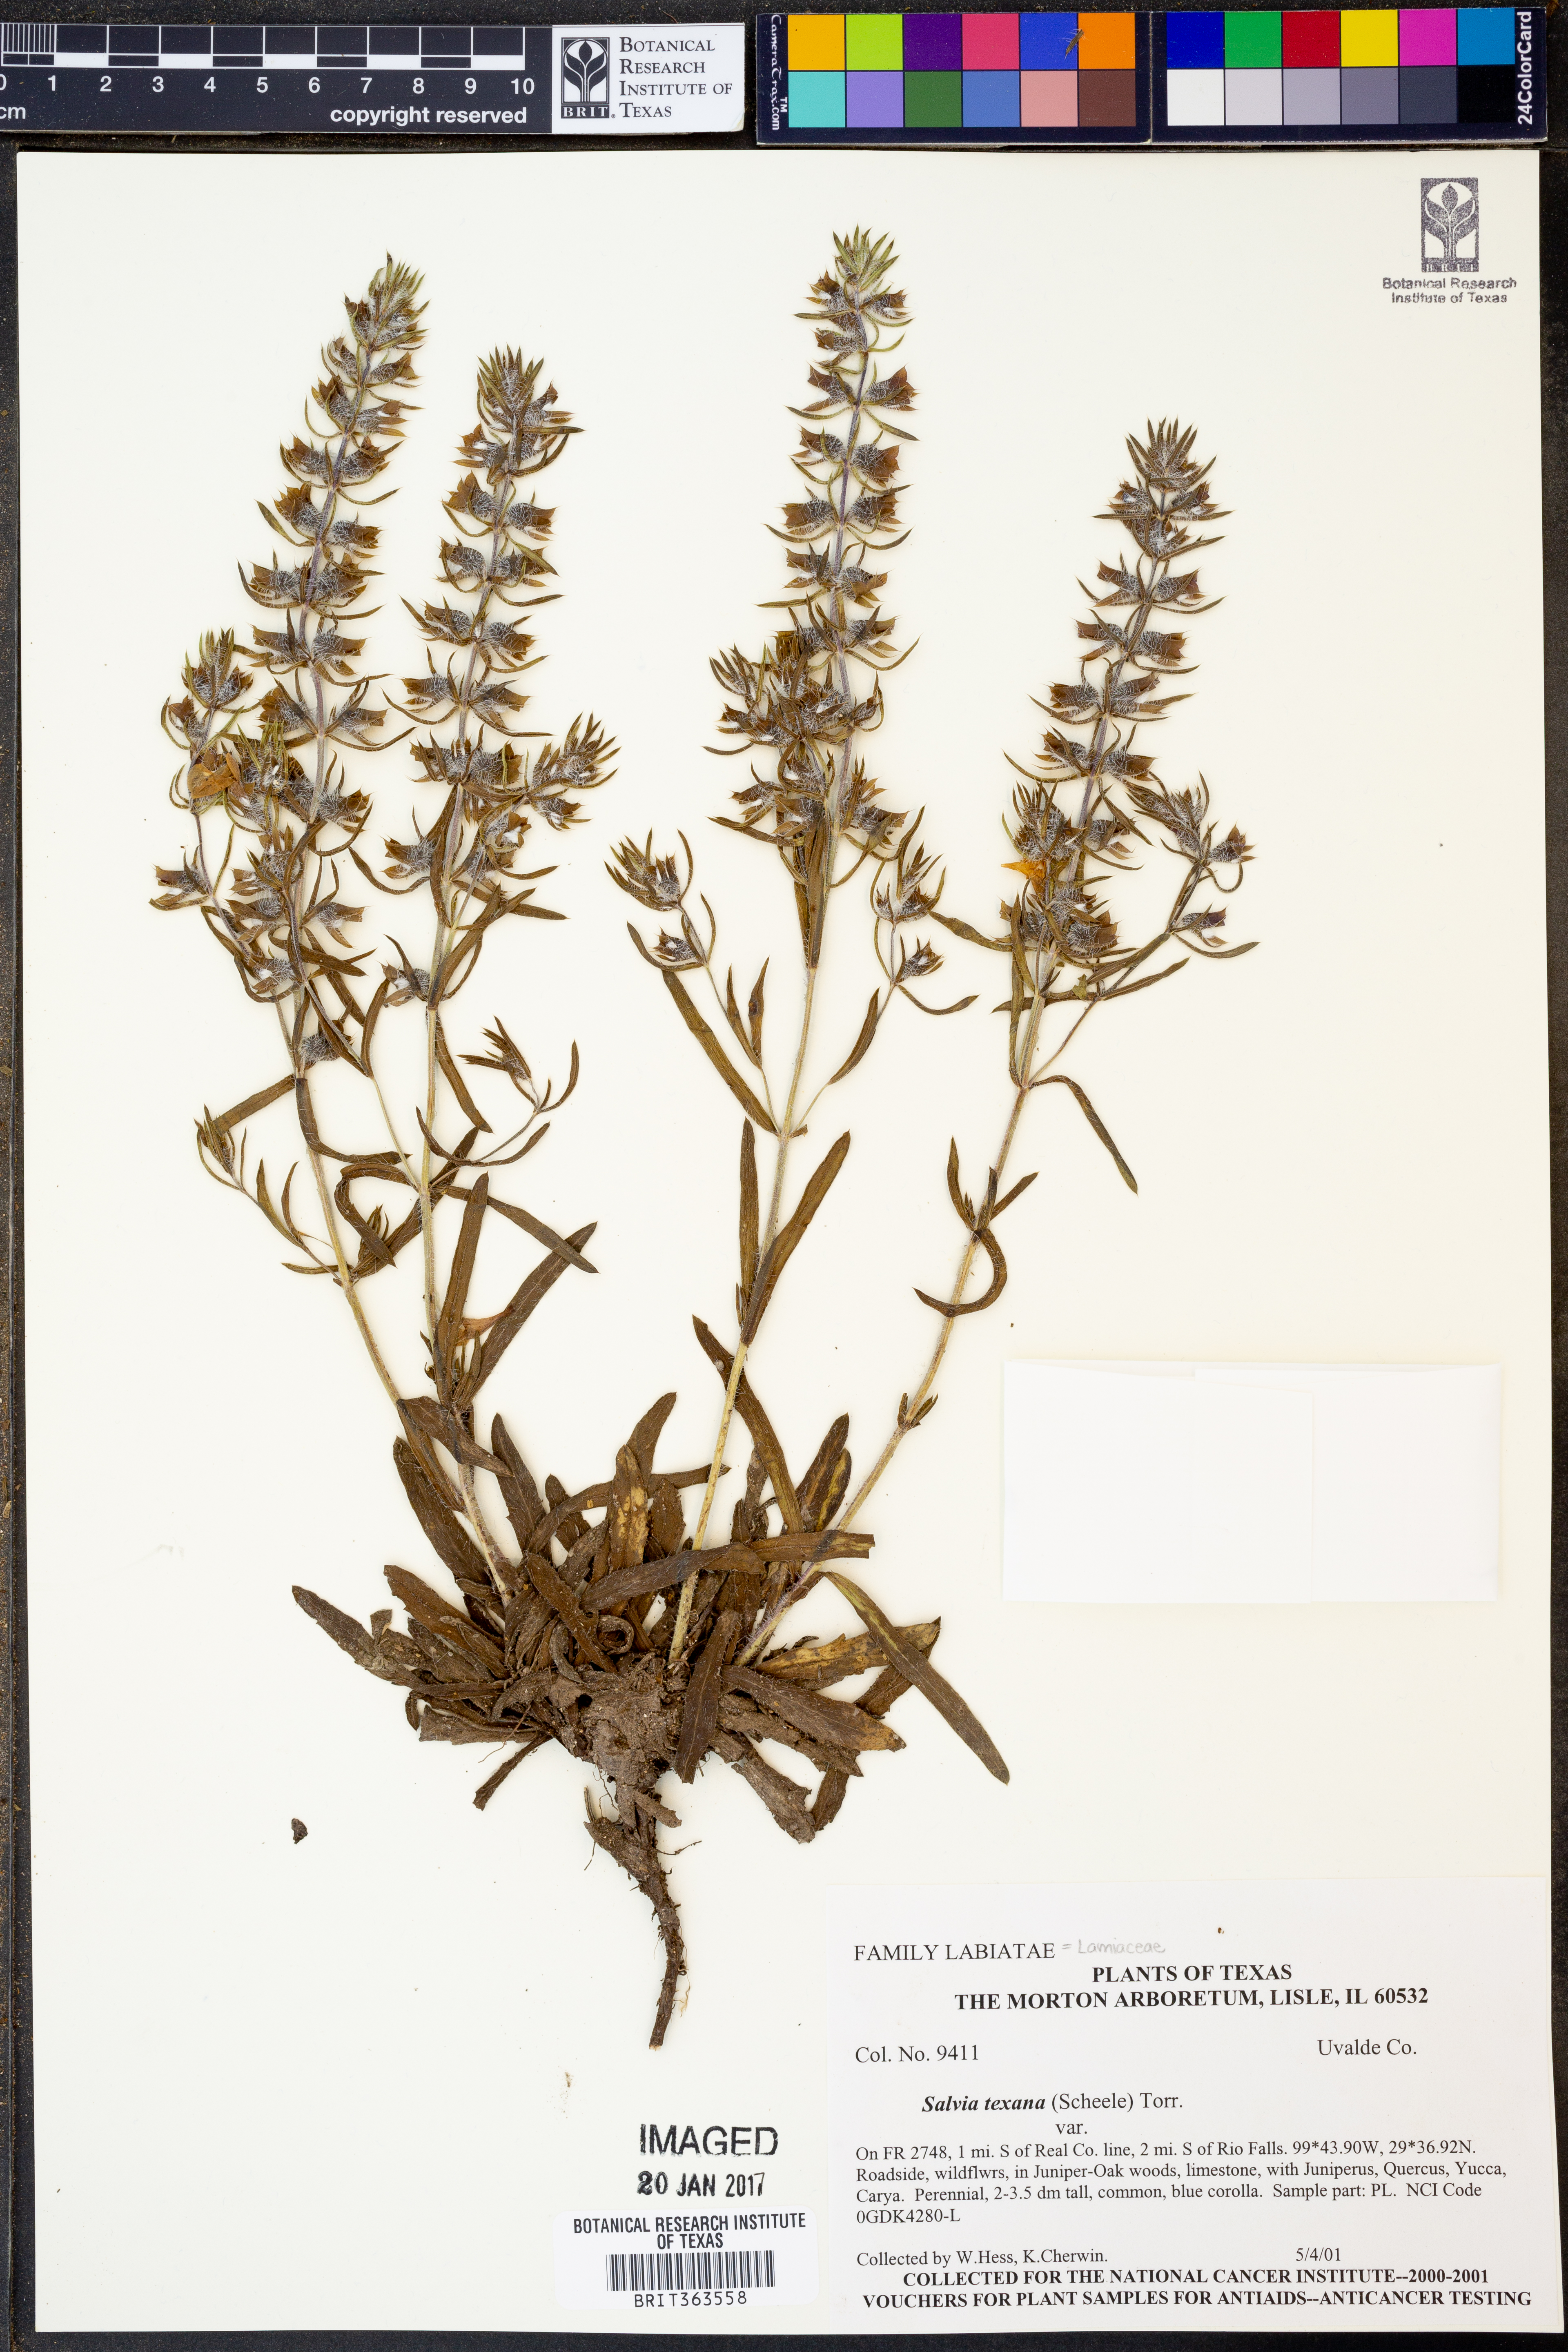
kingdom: Plantae
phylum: Tracheophyta
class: Magnoliopsida
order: Lamiales
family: Lamiaceae
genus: Salvia
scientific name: Salvia texana
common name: Texas sage
